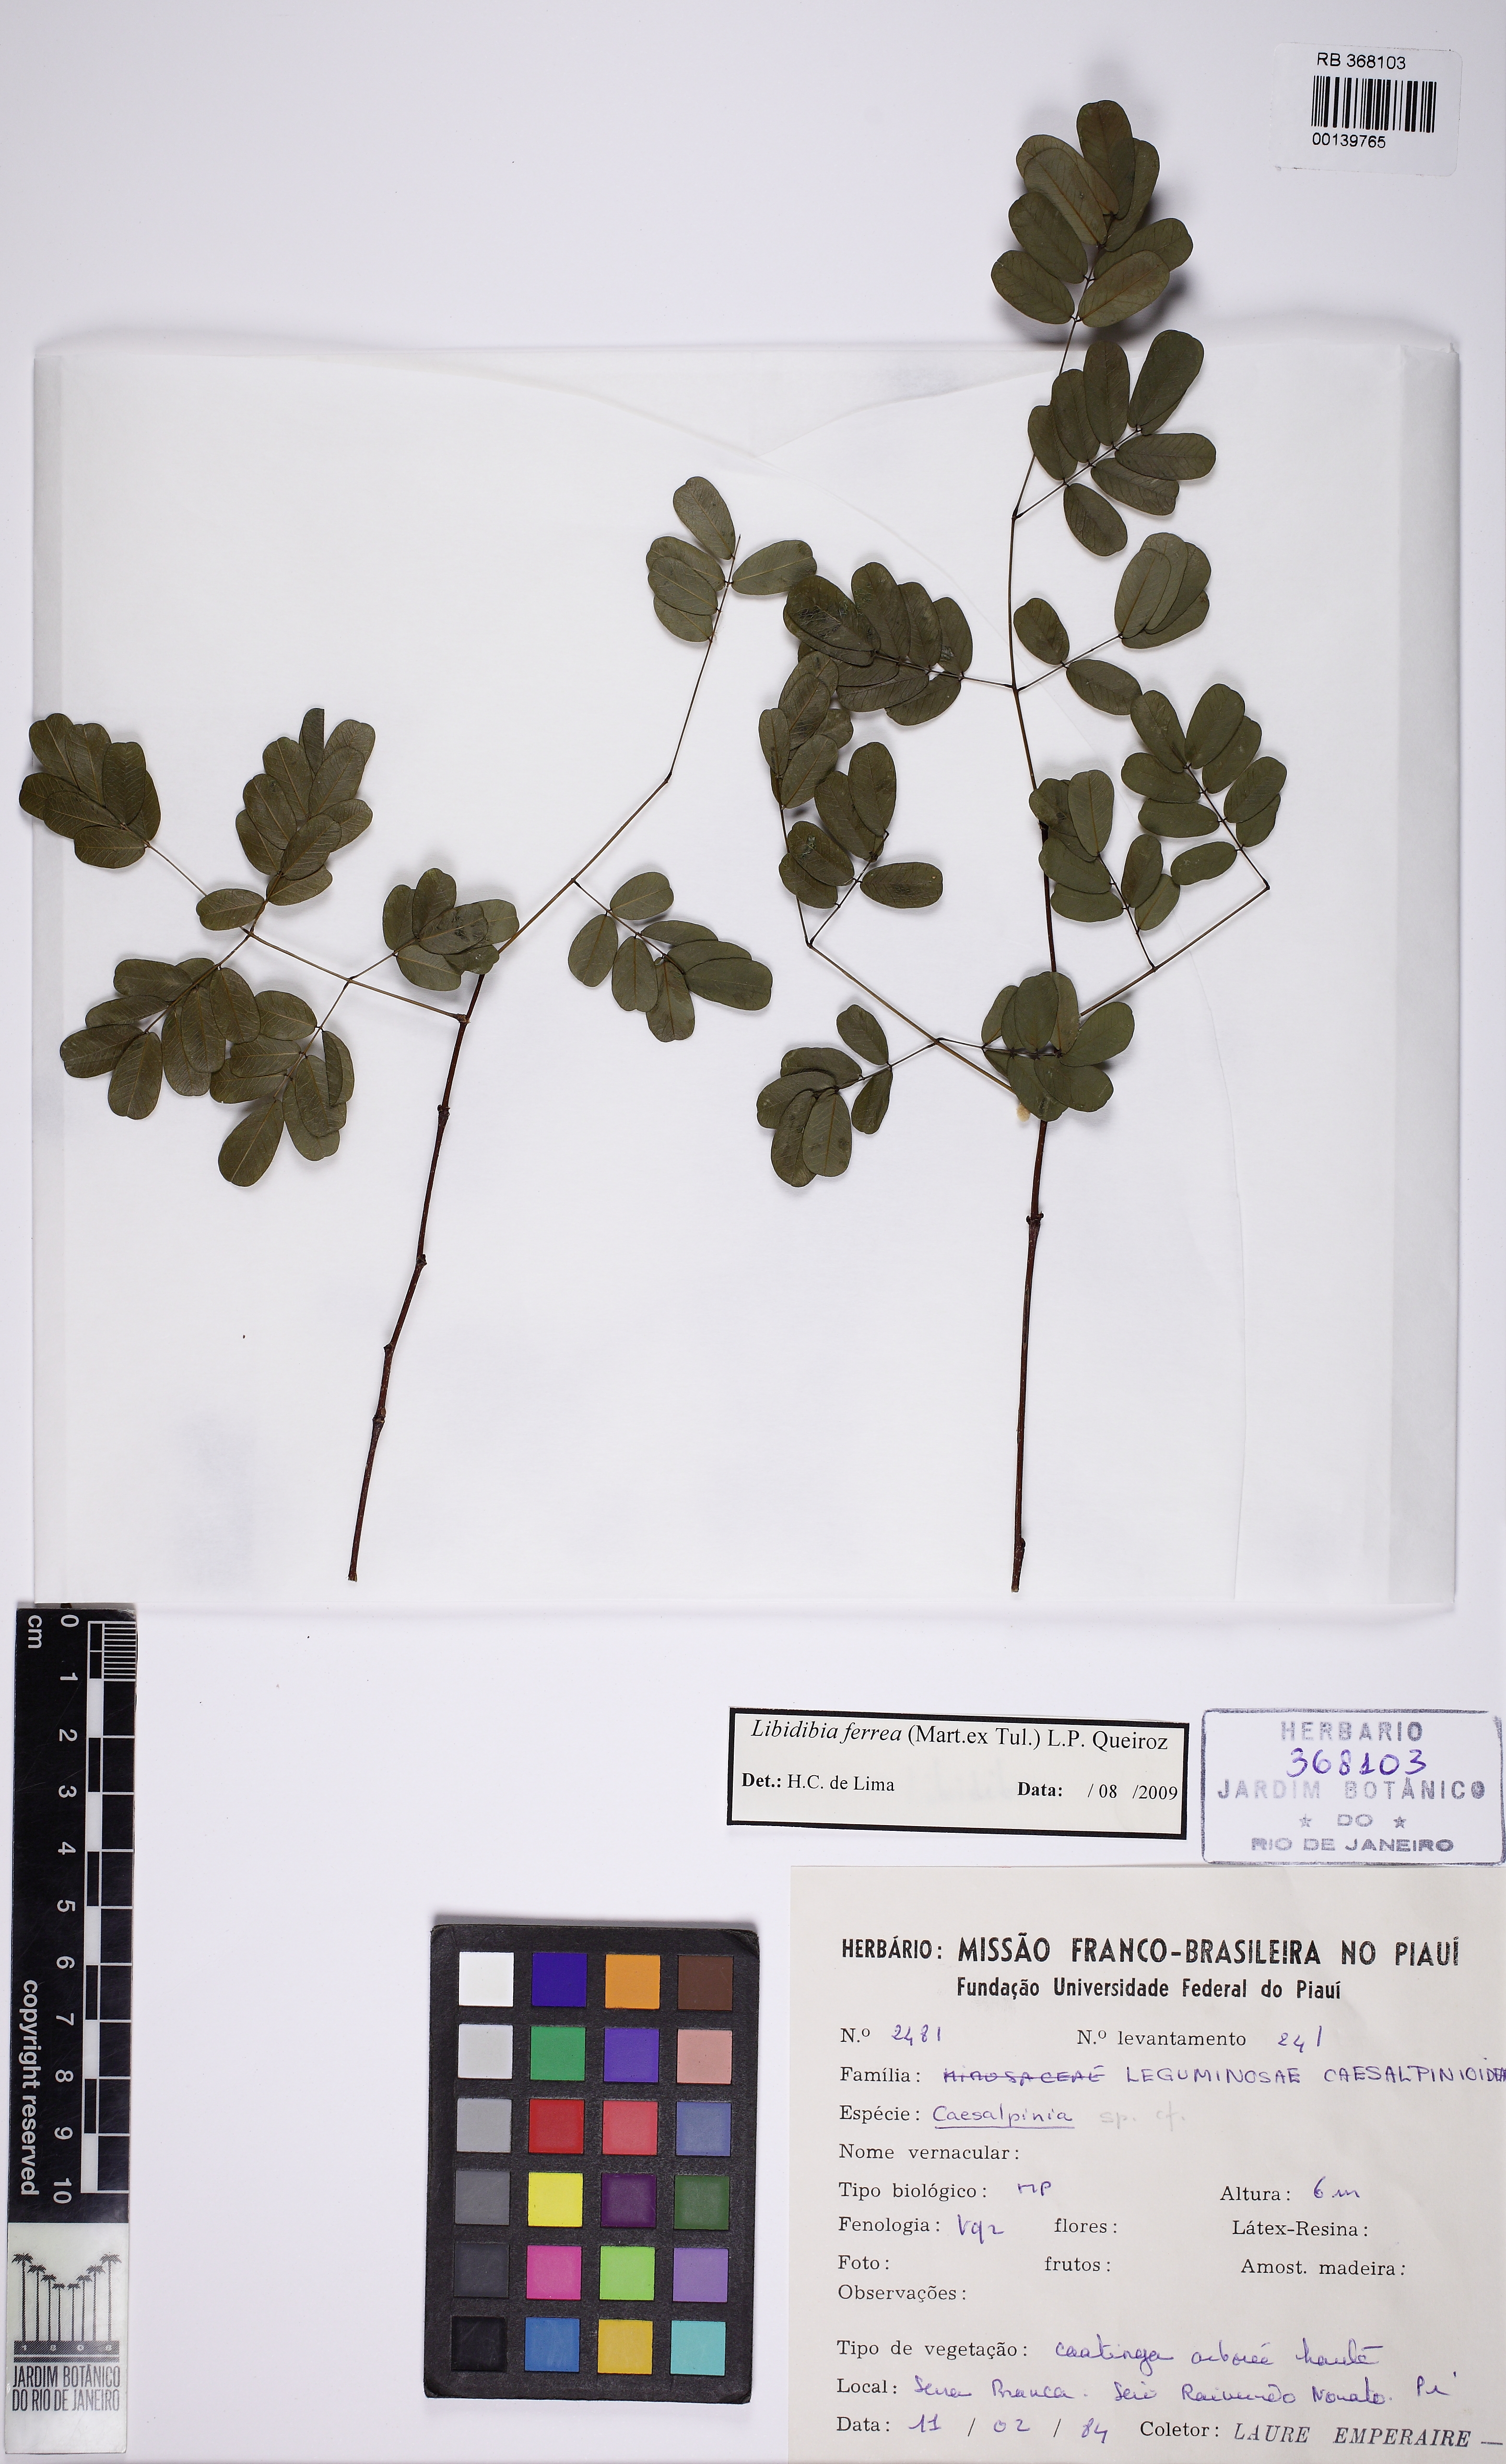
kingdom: Plantae
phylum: Tracheophyta
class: Magnoliopsida
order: Fabales
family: Fabaceae
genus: Libidibia
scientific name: Libidibia ferrea
